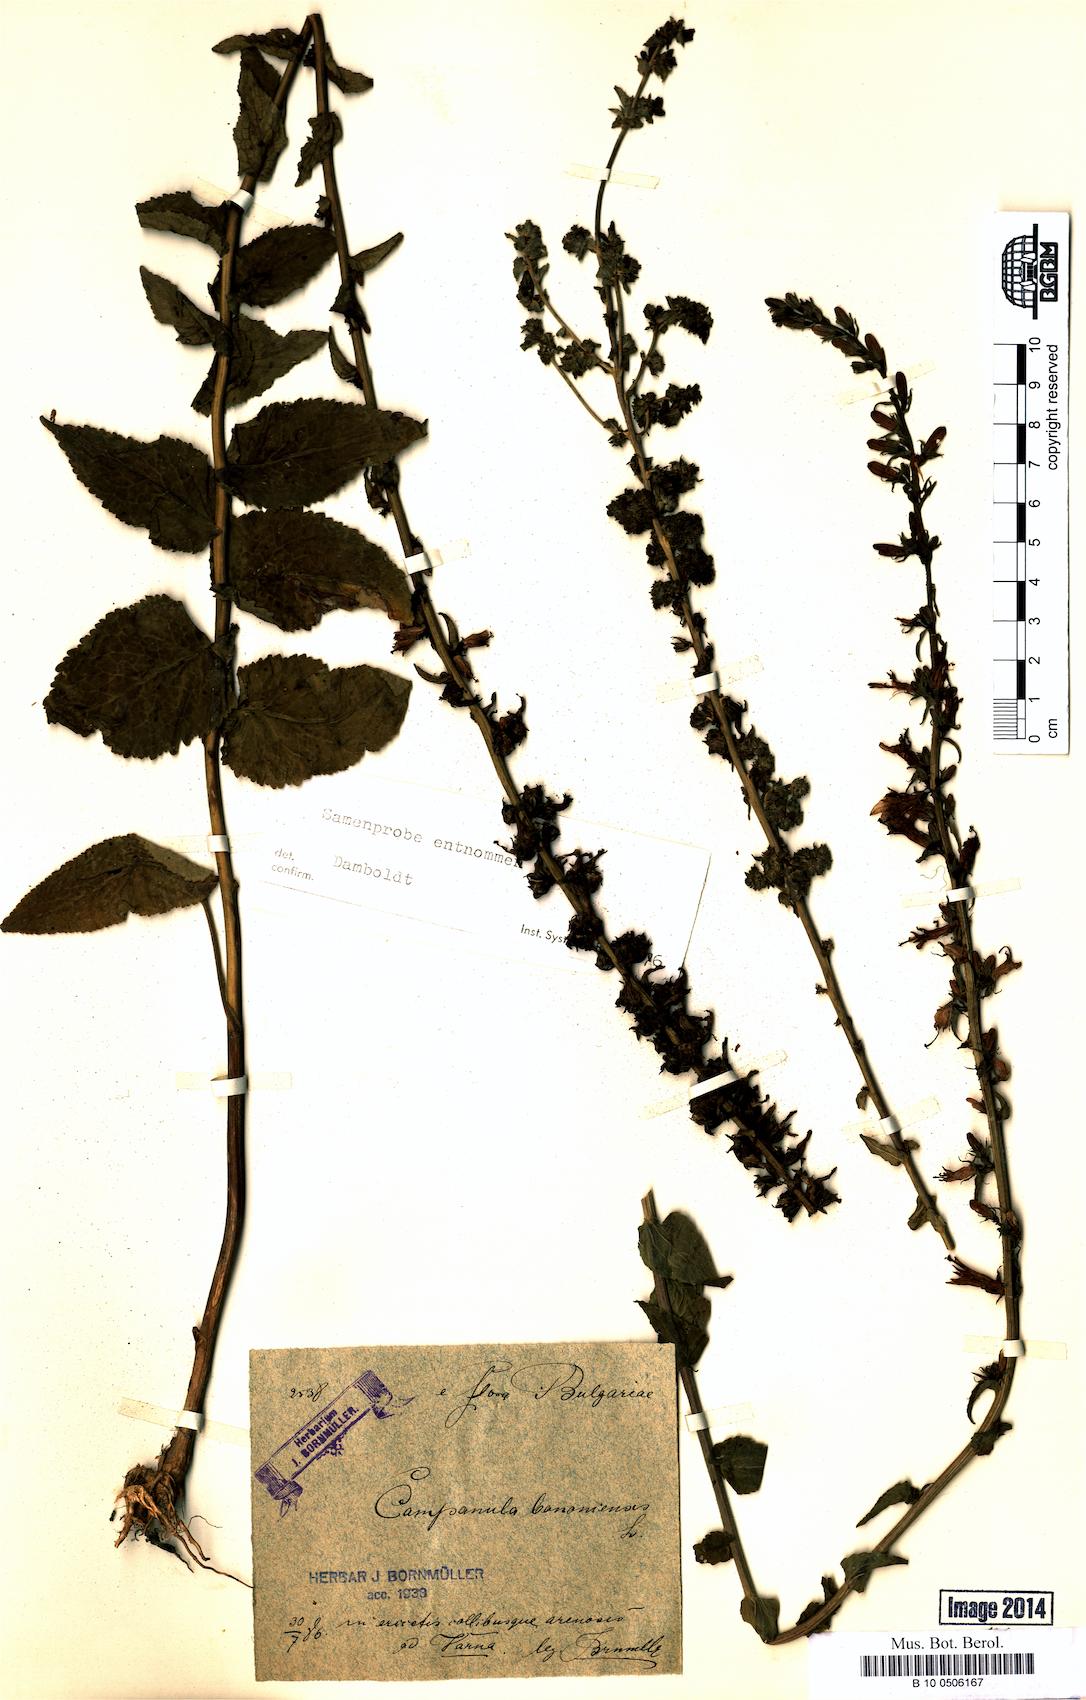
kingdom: Plantae
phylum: Tracheophyta
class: Magnoliopsida
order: Asterales
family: Campanulaceae
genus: Campanula
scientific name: Campanula bononiensis
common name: Pale bellflower
